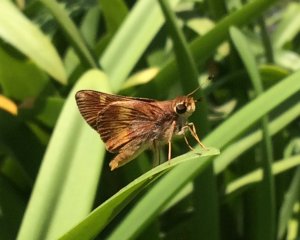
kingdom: Animalia
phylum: Arthropoda
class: Insecta
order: Lepidoptera
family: Hesperiidae
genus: Lon
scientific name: Lon melane
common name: Umber Skipper
